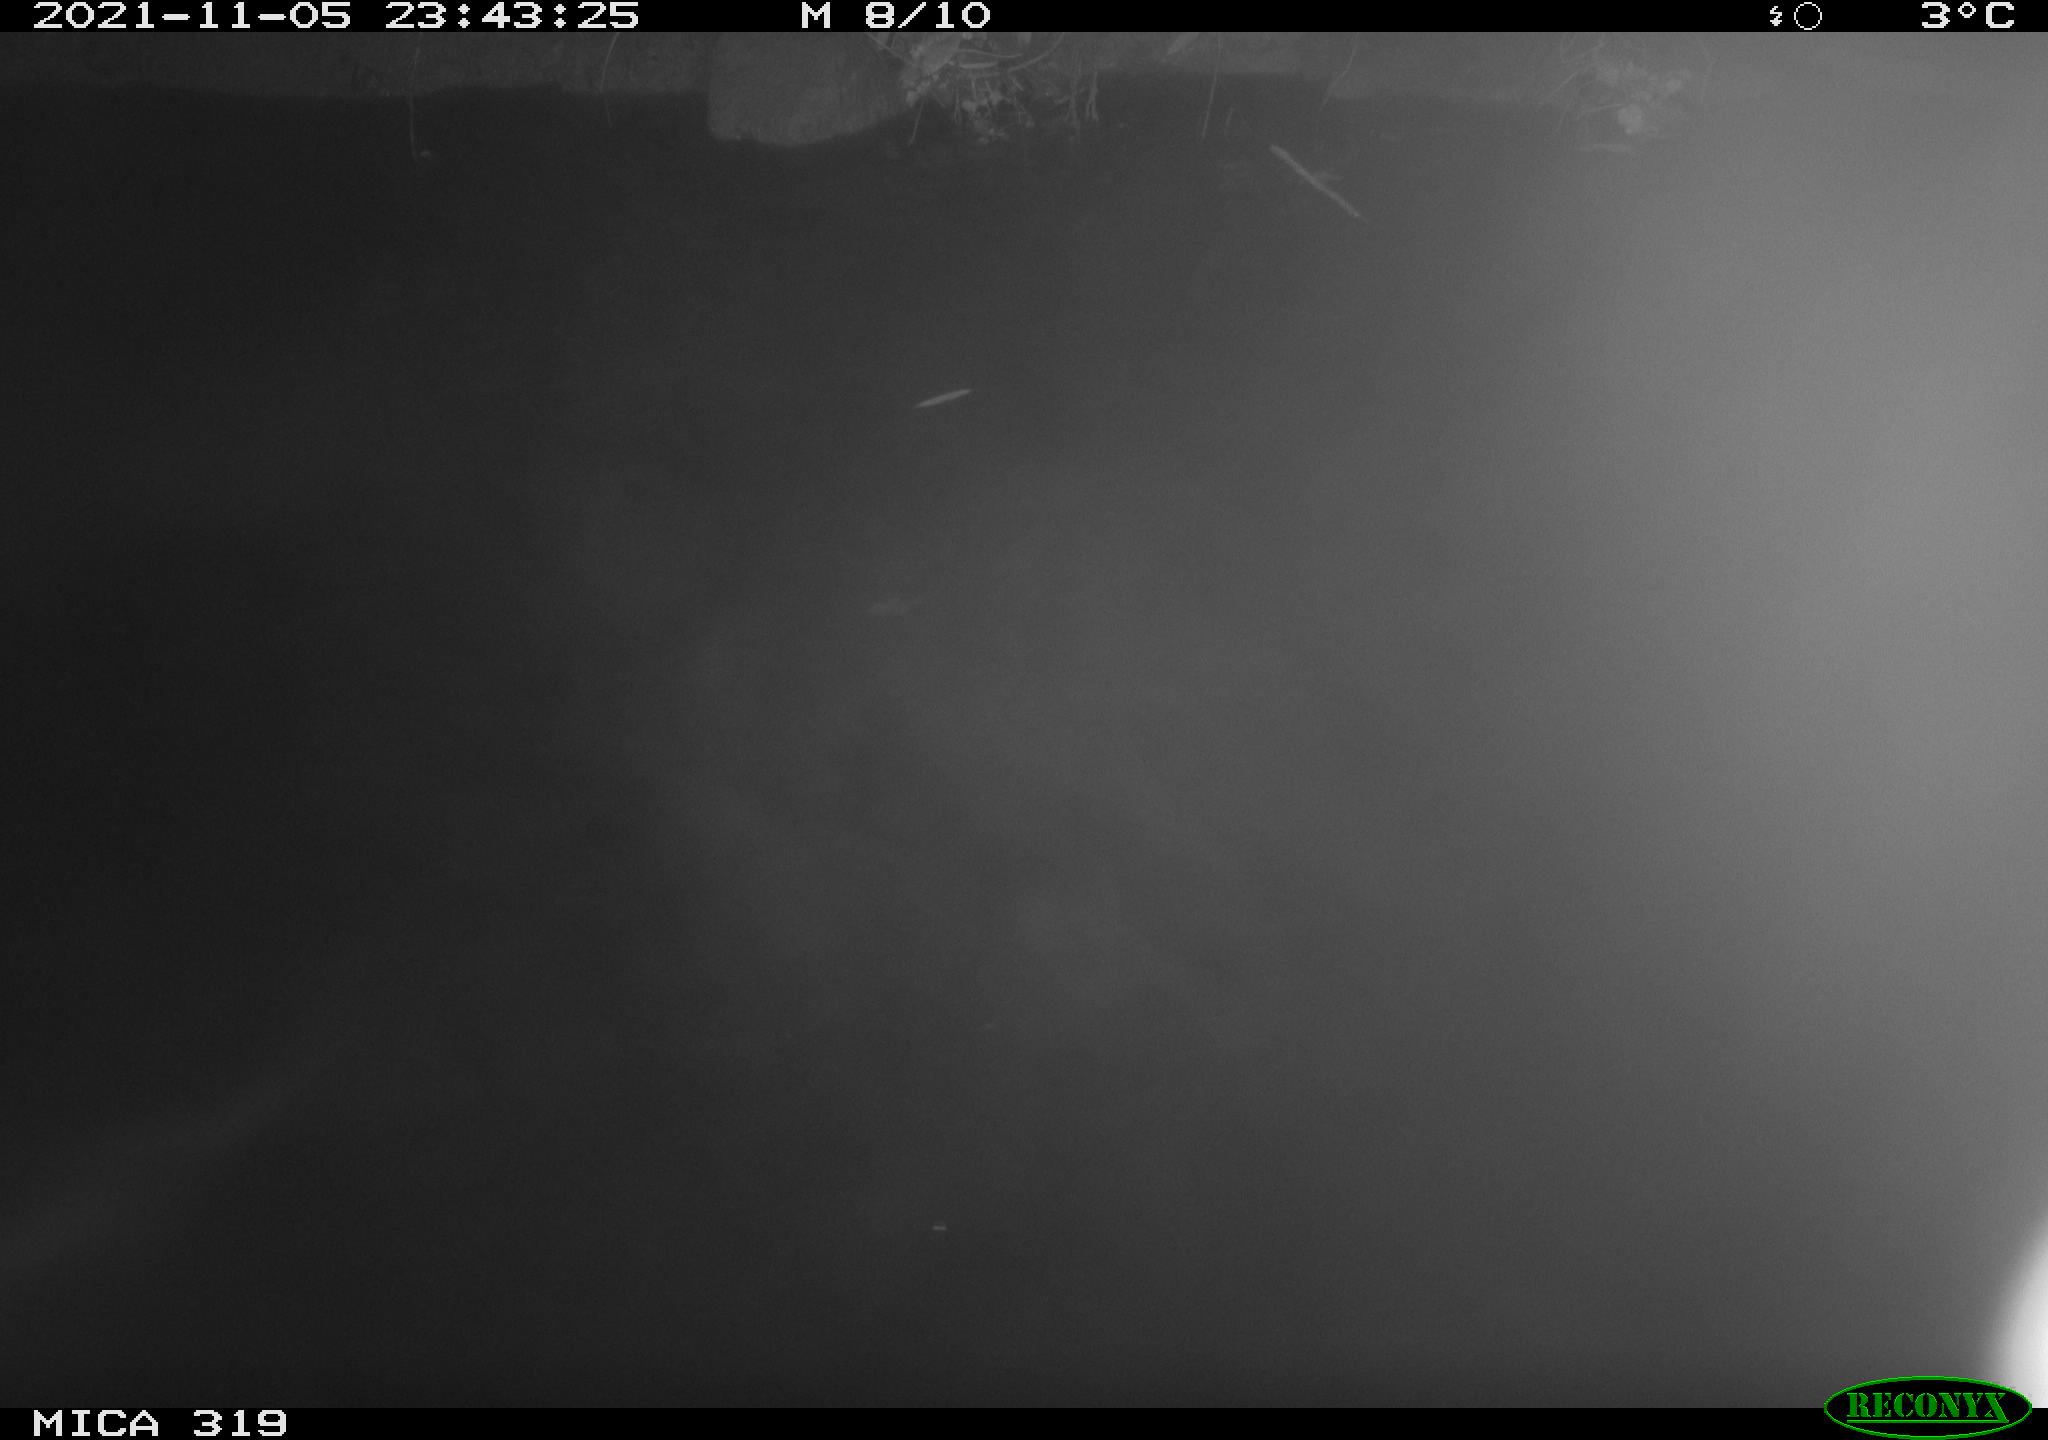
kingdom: Animalia
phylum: Chordata
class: Aves
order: Anseriformes
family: Anatidae
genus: Anas
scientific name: Anas platyrhynchos
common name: Mallard
